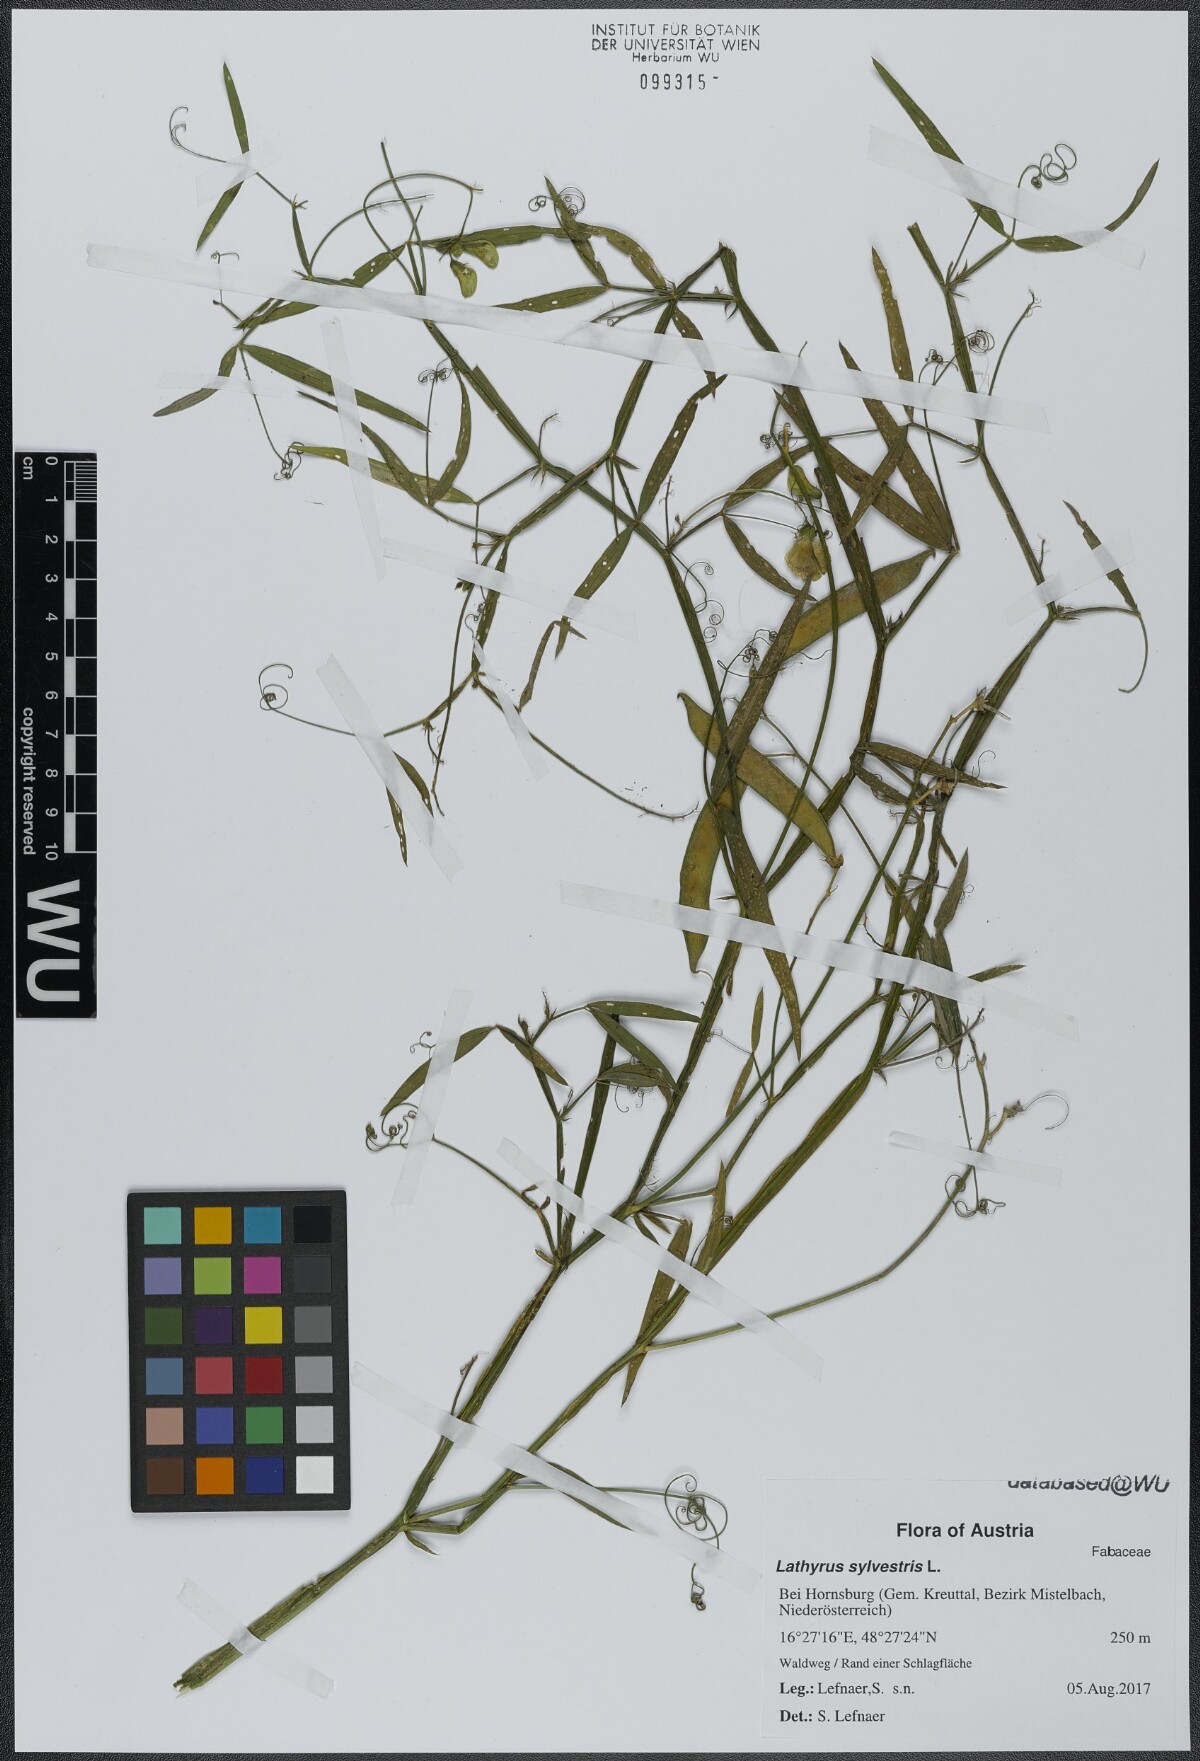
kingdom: Plantae
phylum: Tracheophyta
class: Magnoliopsida
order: Fabales
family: Fabaceae
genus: Lathyrus
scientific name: Lathyrus sylvestris
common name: Flat pea
